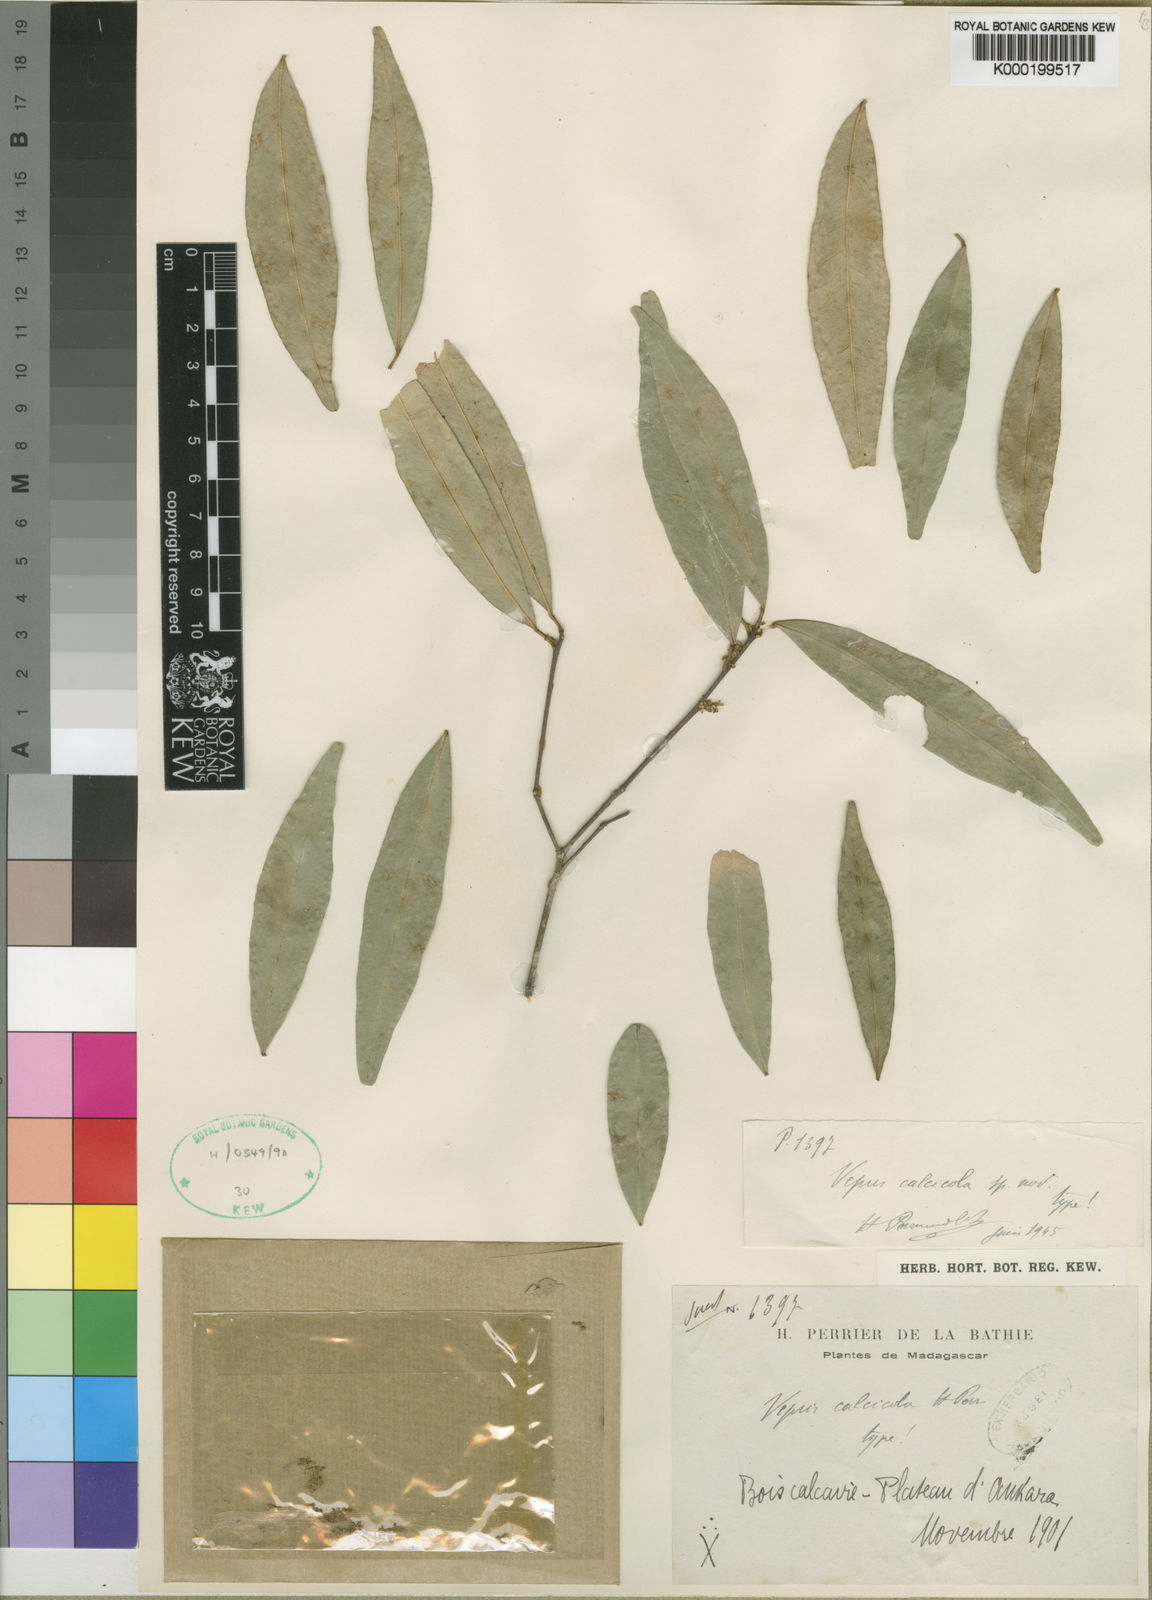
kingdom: Plantae
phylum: Tracheophyta
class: Magnoliopsida
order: Sapindales
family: Rutaceae
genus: Vepris
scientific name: Vepris calcicola
